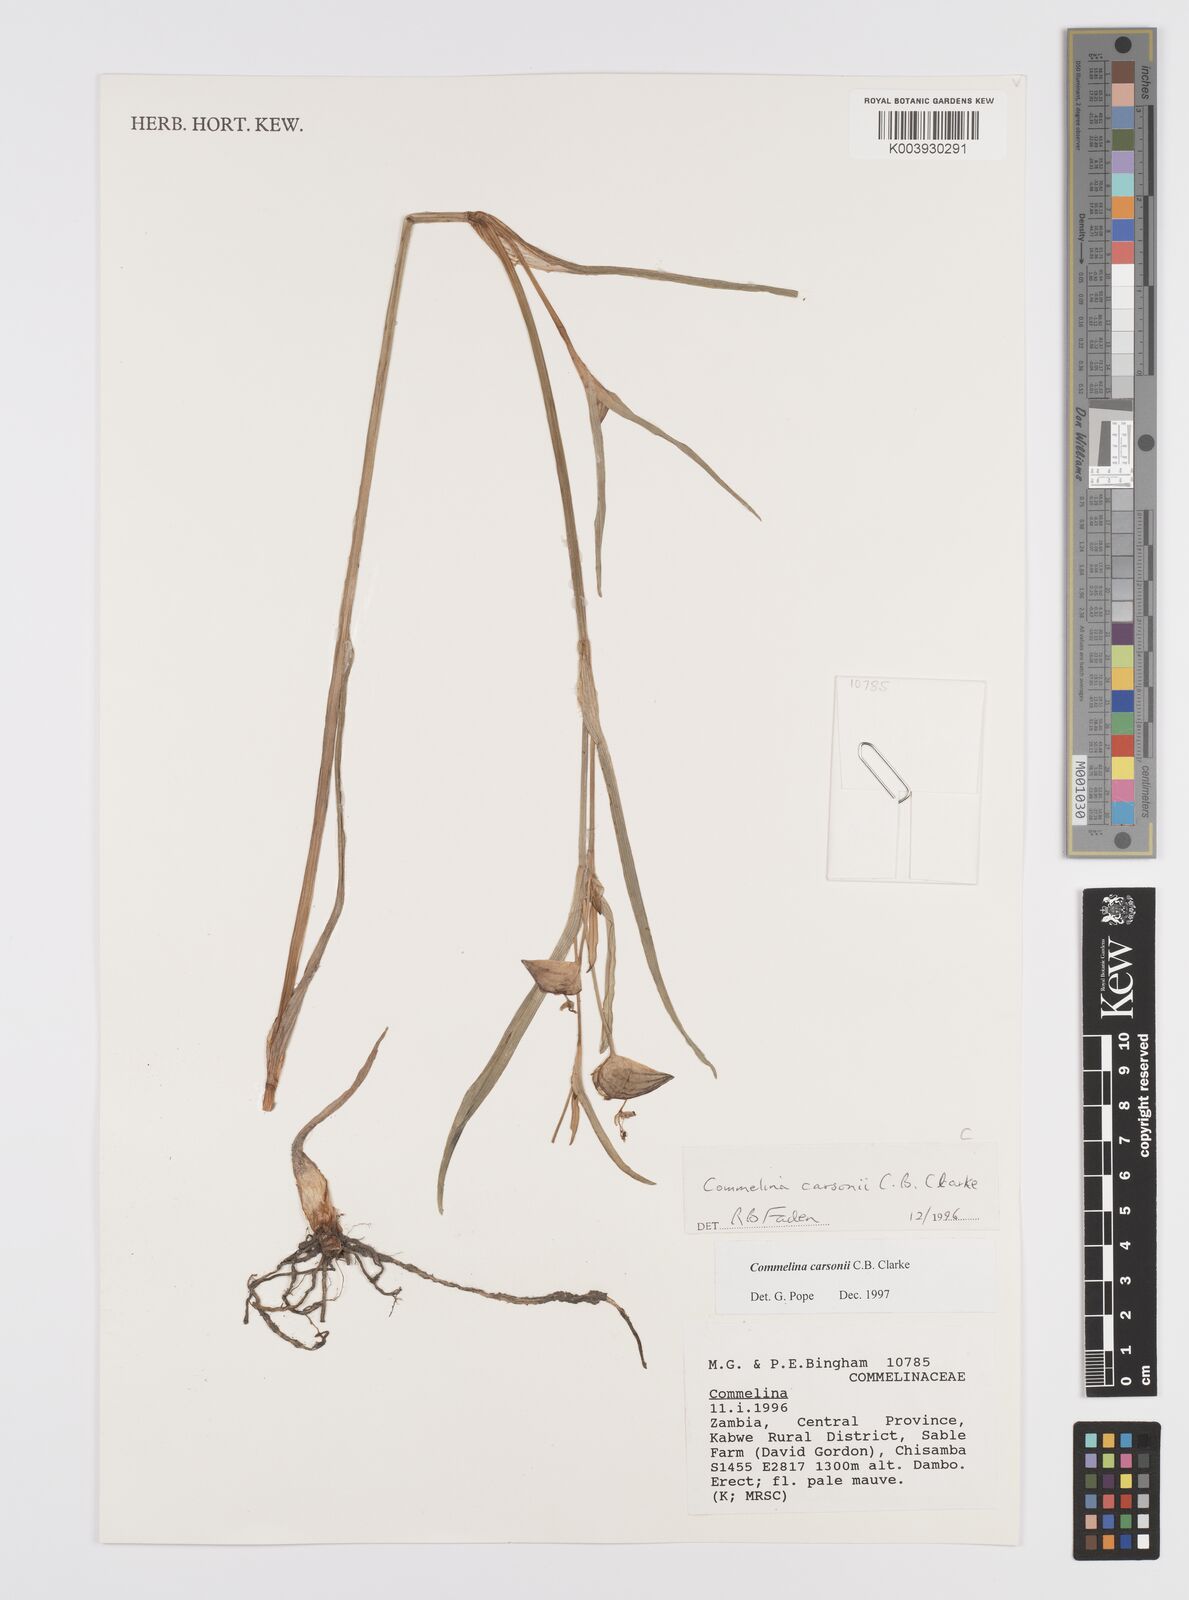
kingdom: Plantae
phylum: Tracheophyta
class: Liliopsida
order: Commelinales
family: Commelinaceae
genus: Commelina
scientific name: Commelina schweinfurthii
